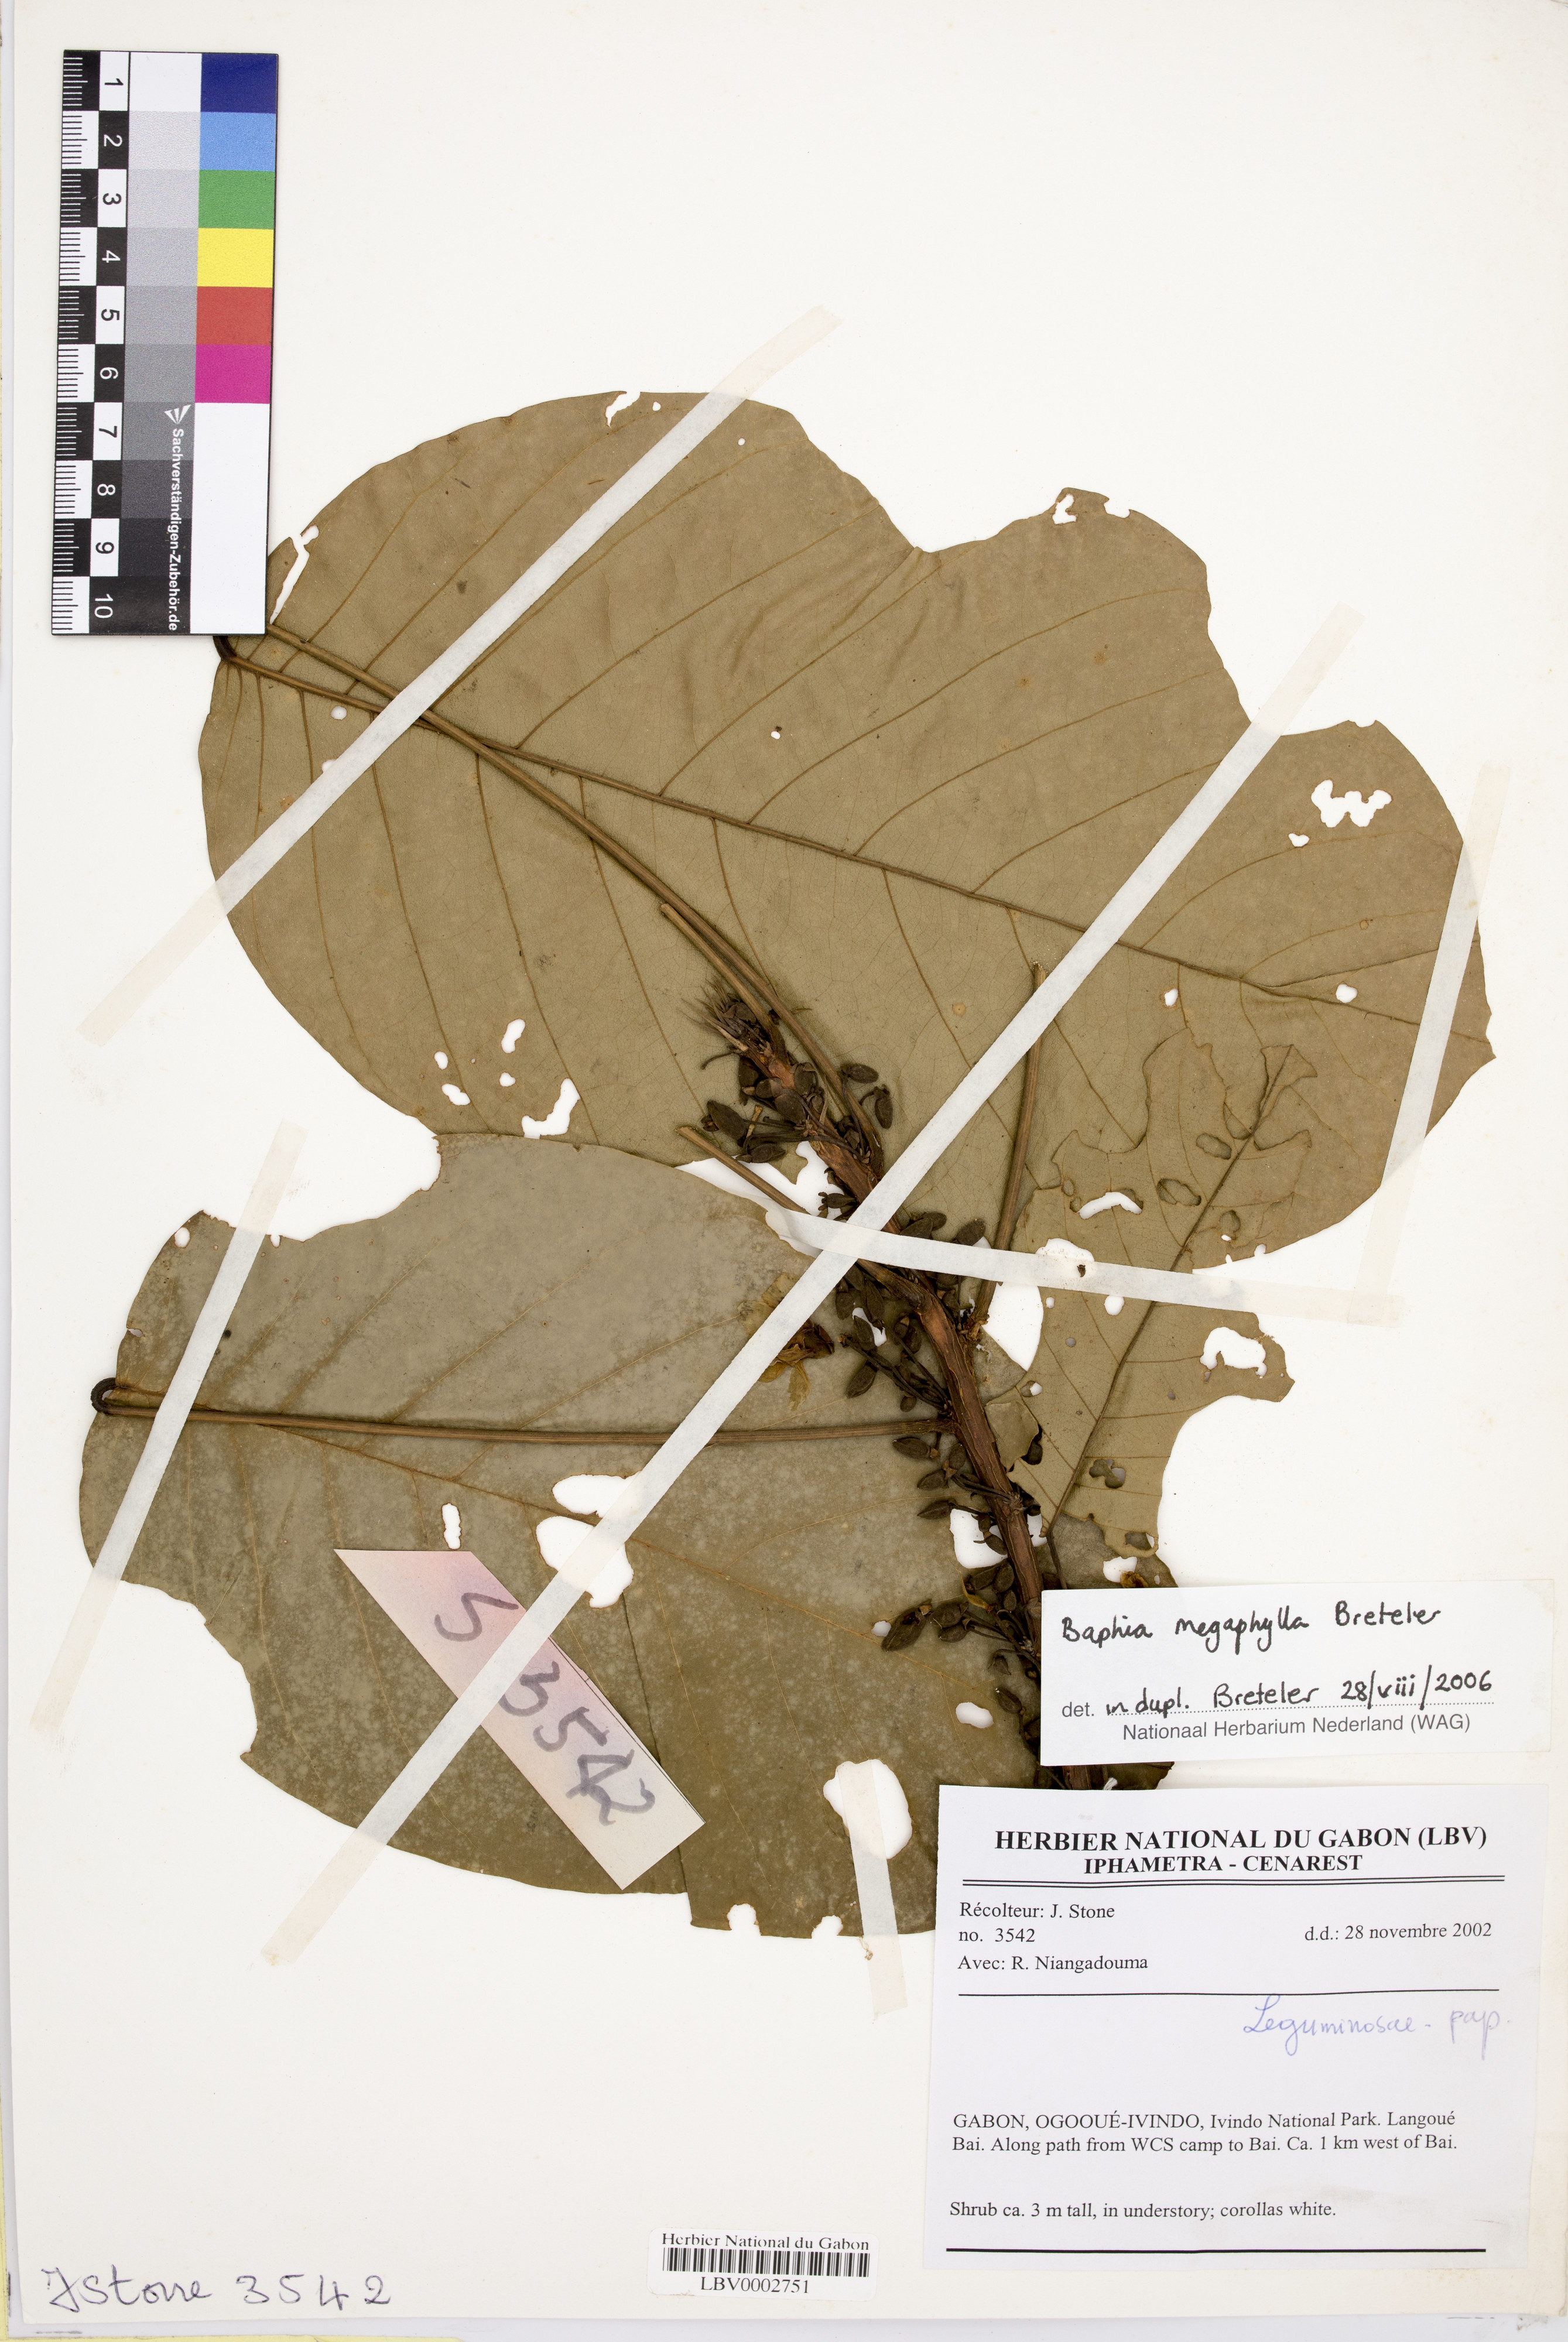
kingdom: Plantae
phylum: Tracheophyta
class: Magnoliopsida
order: Fabales
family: Fabaceae
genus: Baphia
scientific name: Baphia megaphylla
